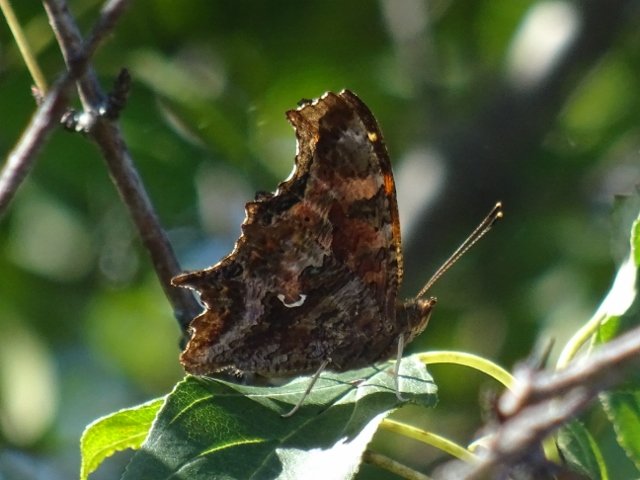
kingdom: Animalia
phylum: Arthropoda
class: Insecta
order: Lepidoptera
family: Nymphalidae
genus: Polygonia
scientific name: Polygonia comma
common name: Eastern Comma
